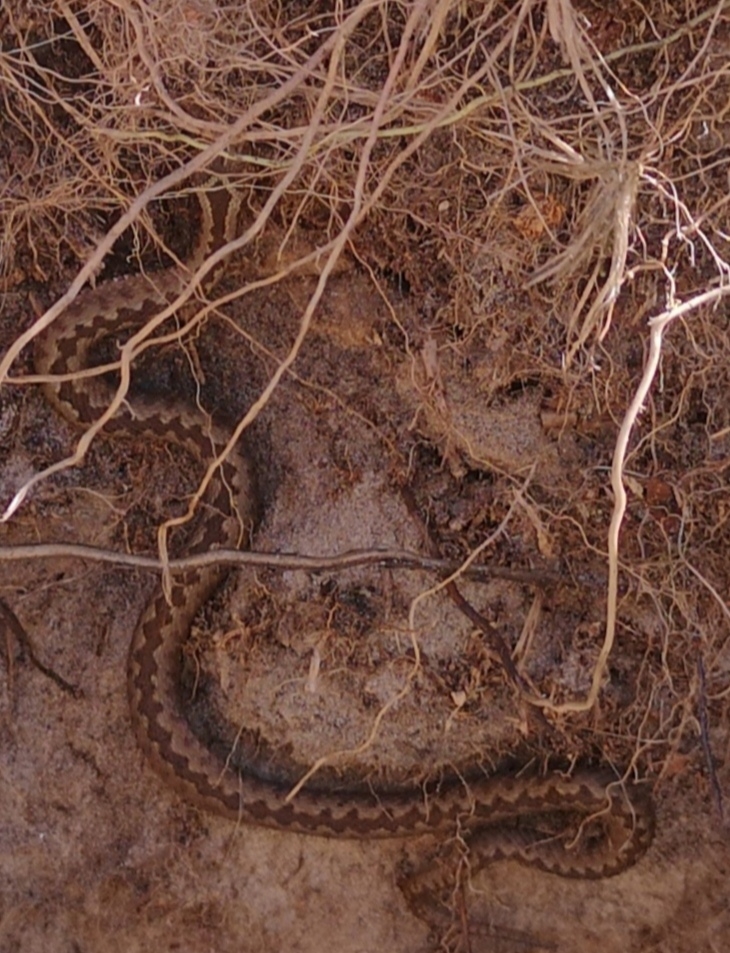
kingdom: Animalia
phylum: Chordata
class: Squamata
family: Viperidae
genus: Vipera
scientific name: Vipera berus
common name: Hugorm
